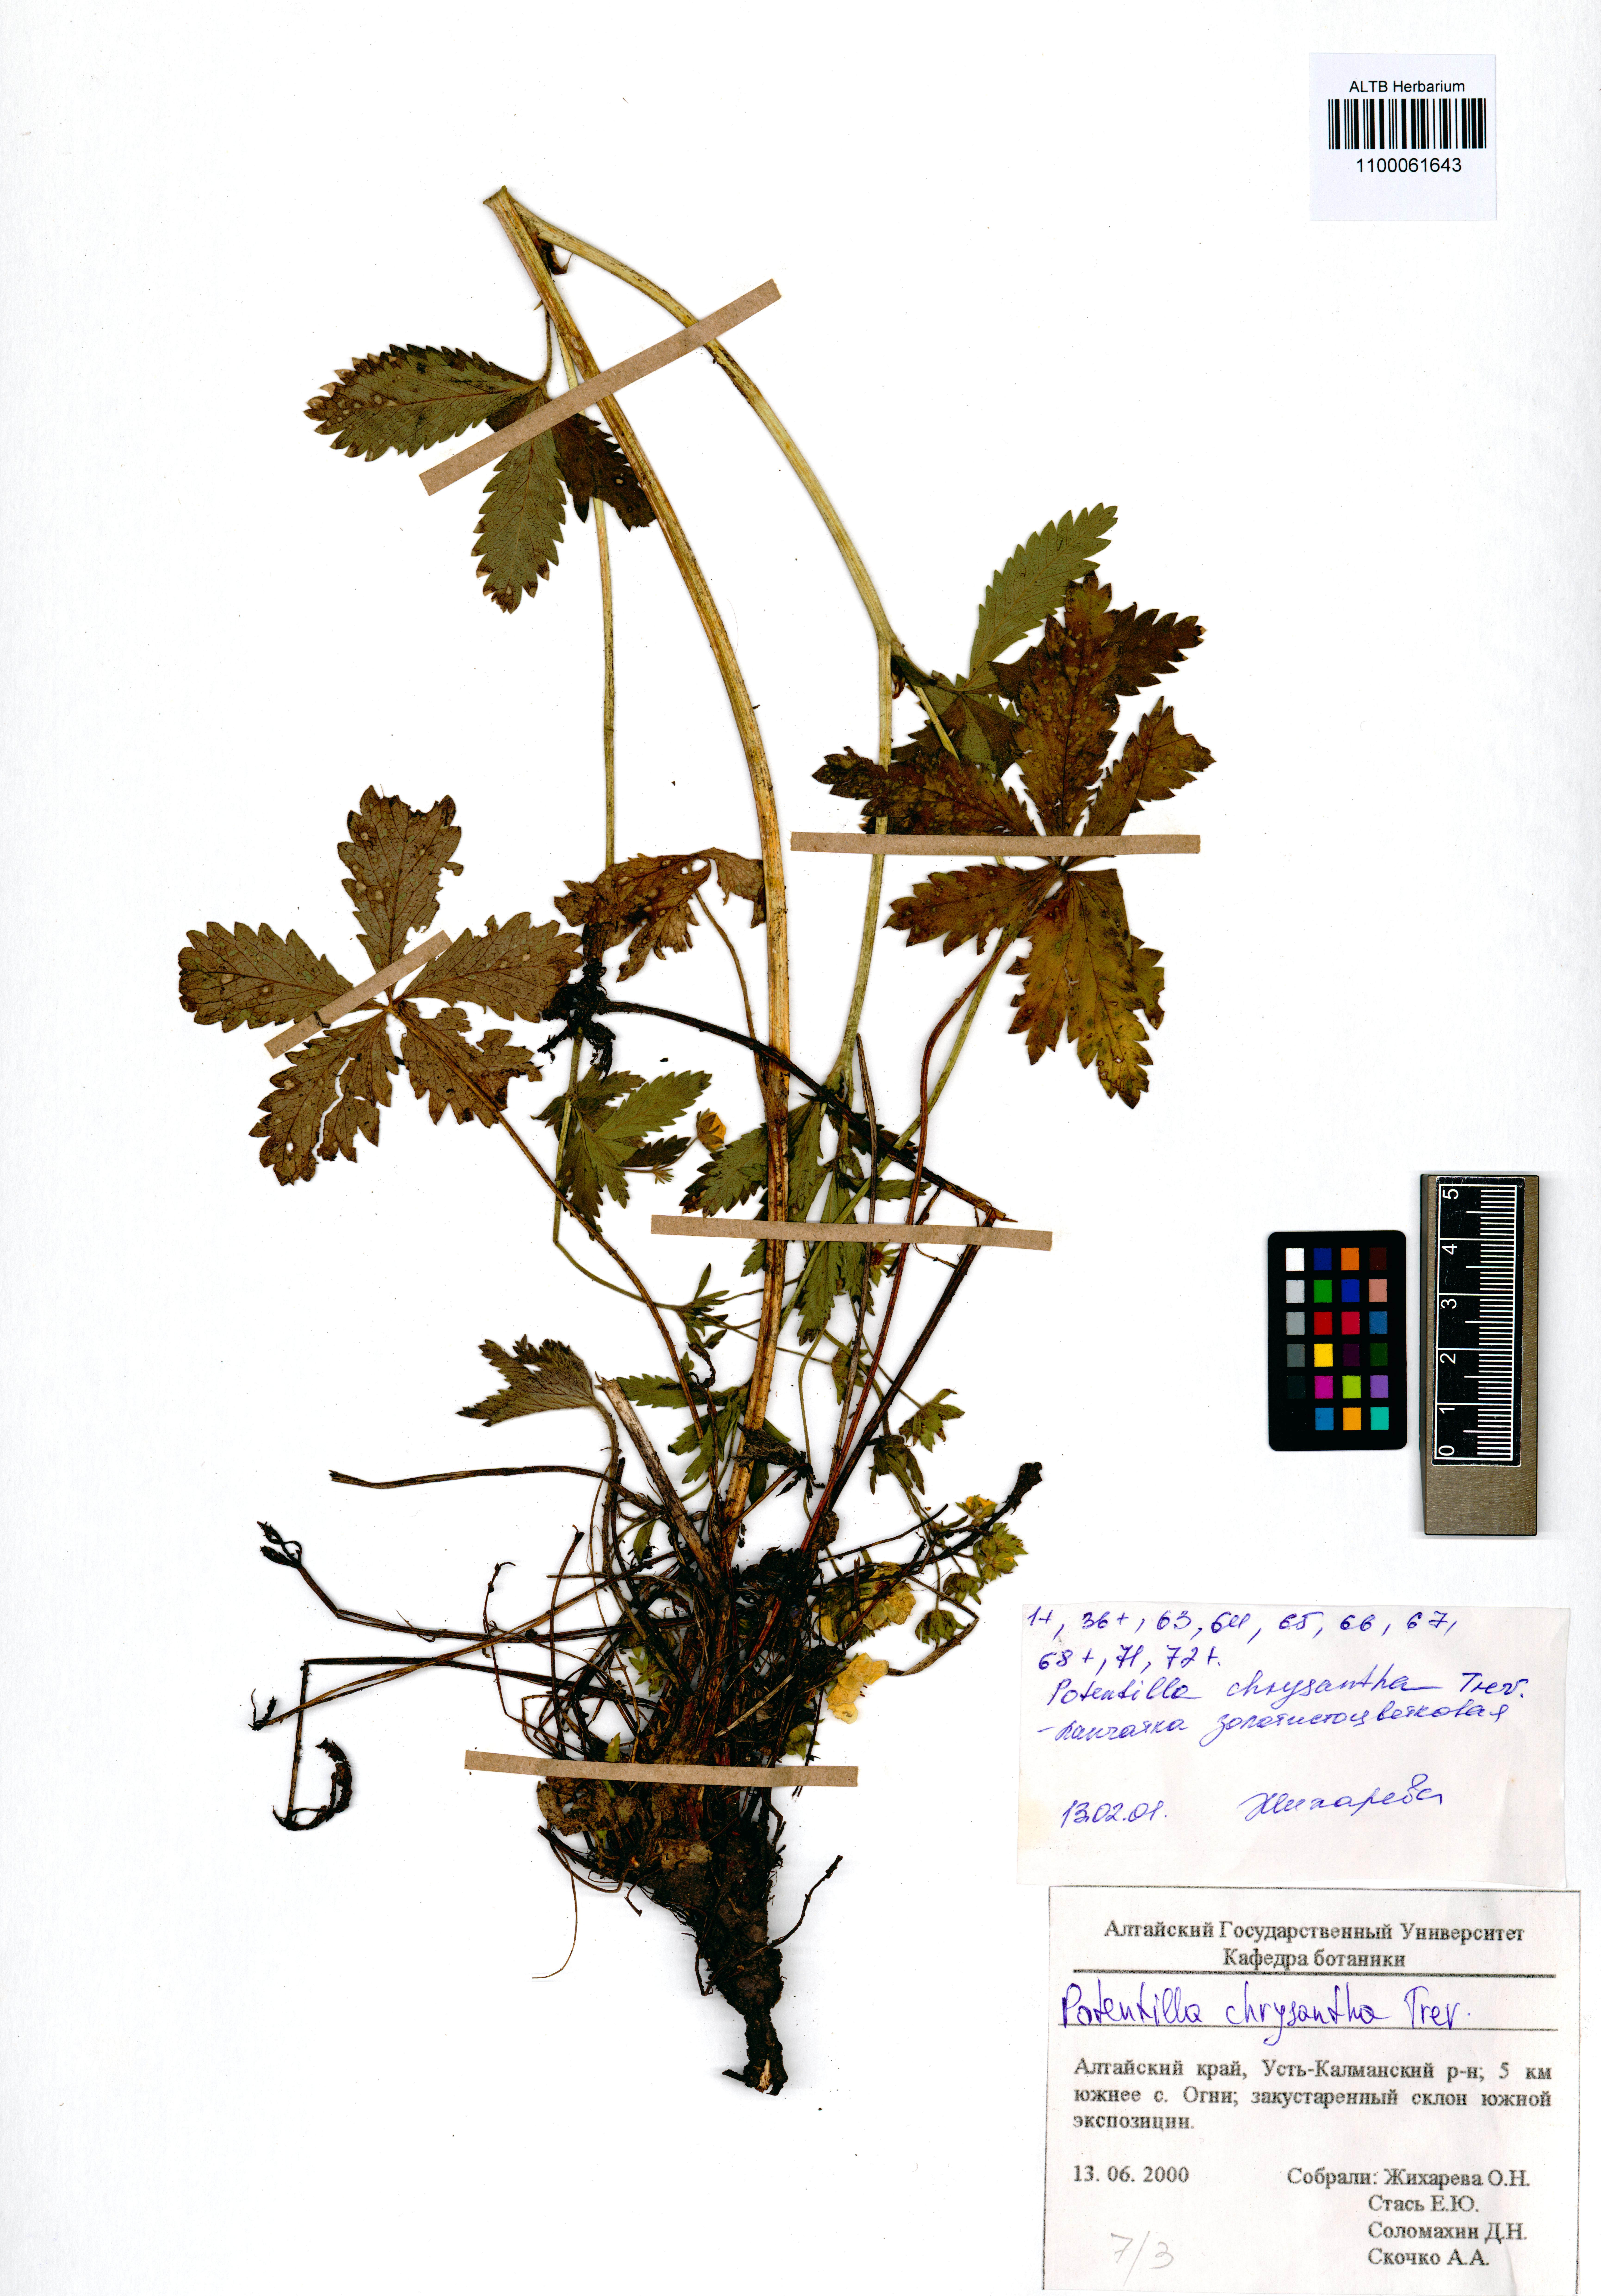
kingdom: Plantae
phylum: Tracheophyta
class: Magnoliopsida
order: Rosales
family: Rosaceae
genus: Potentilla
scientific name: Potentilla chrysantha
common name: Thuringian cinquefoil
